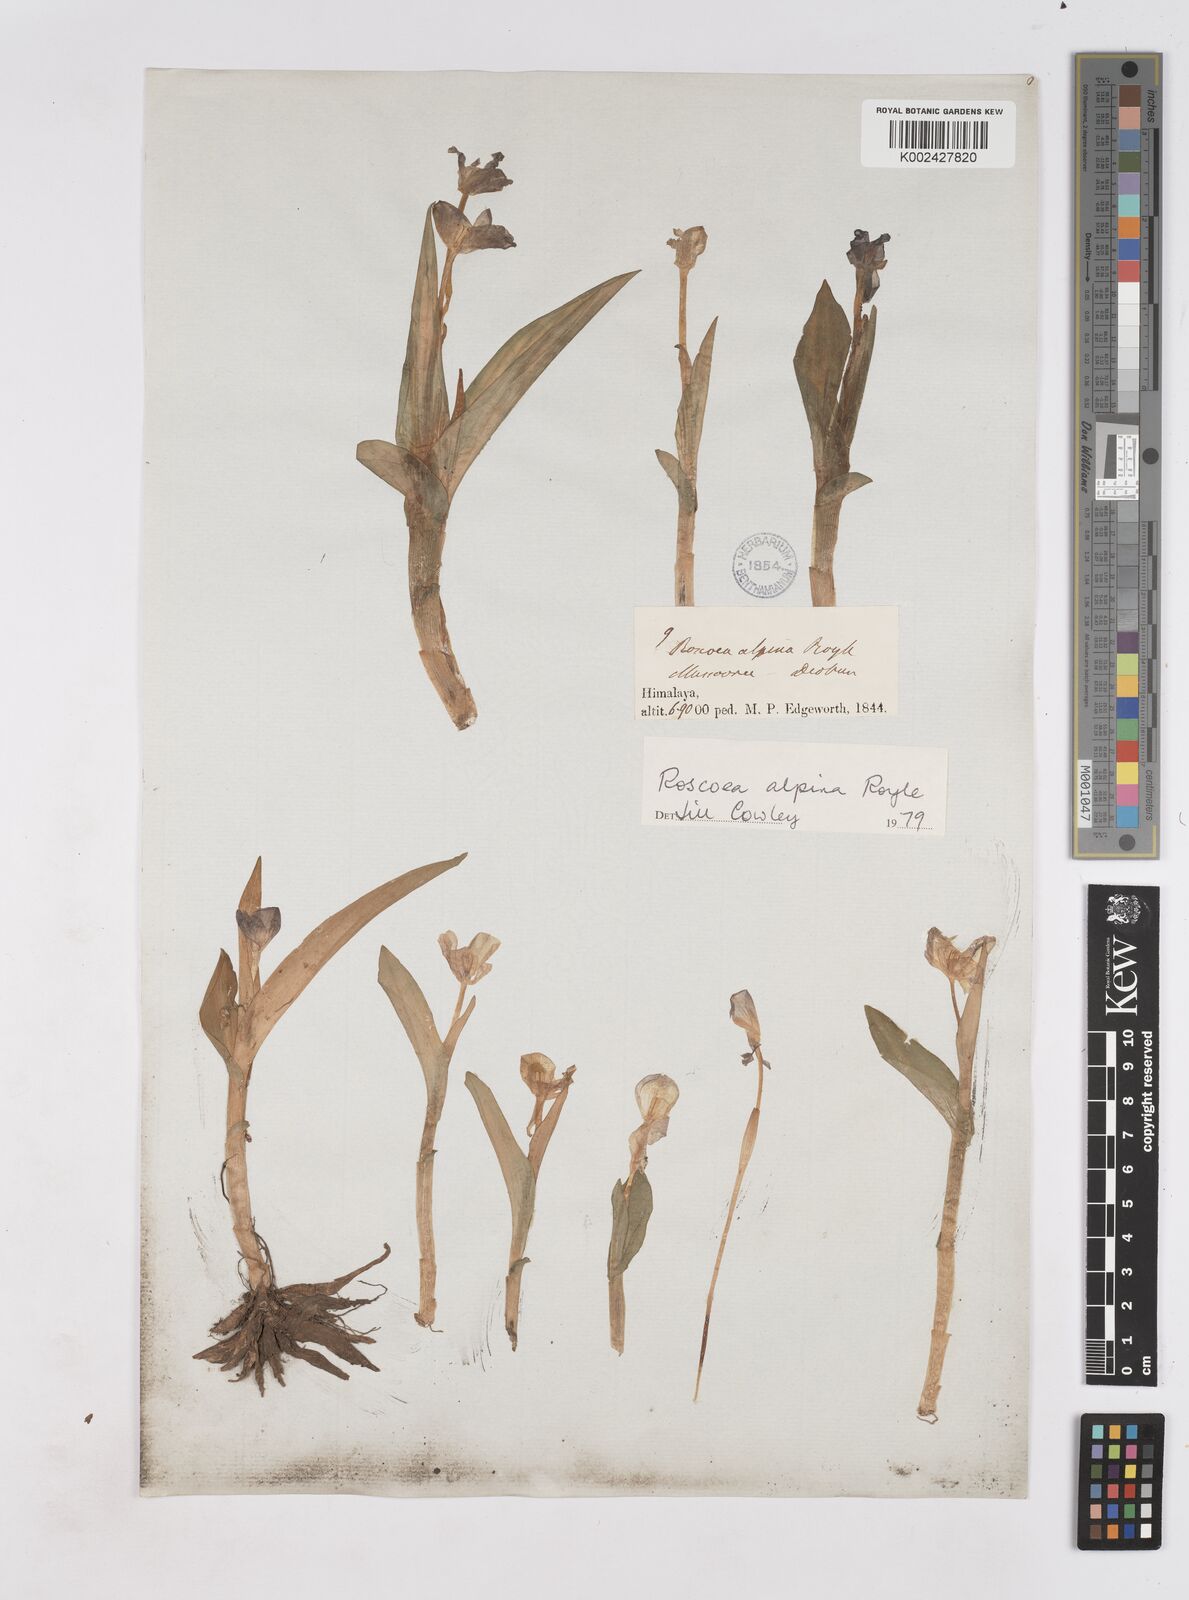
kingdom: Plantae
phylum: Tracheophyta
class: Liliopsida
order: Zingiberales
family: Zingiberaceae
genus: Roscoea
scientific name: Roscoea alpina
